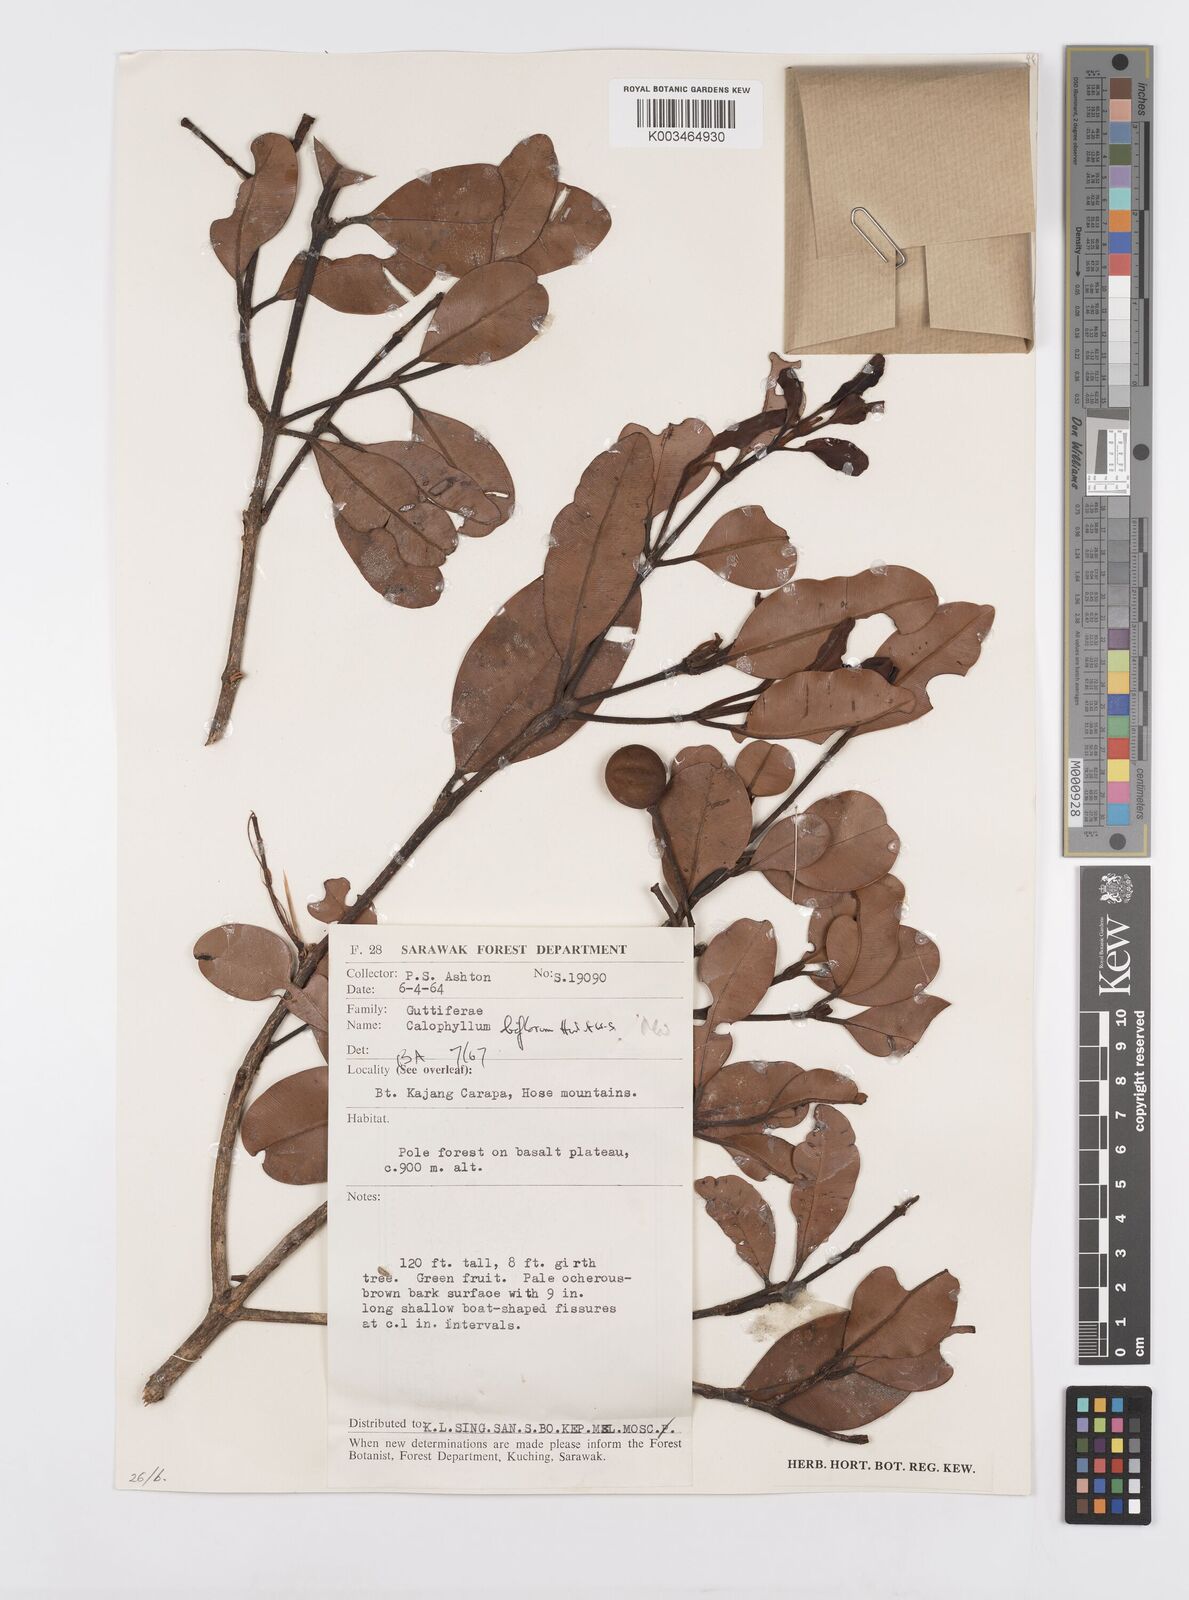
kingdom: Plantae
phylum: Tracheophyta
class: Magnoliopsida
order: Malpighiales
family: Calophyllaceae
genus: Calophyllum
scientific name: Calophyllum biflorum
